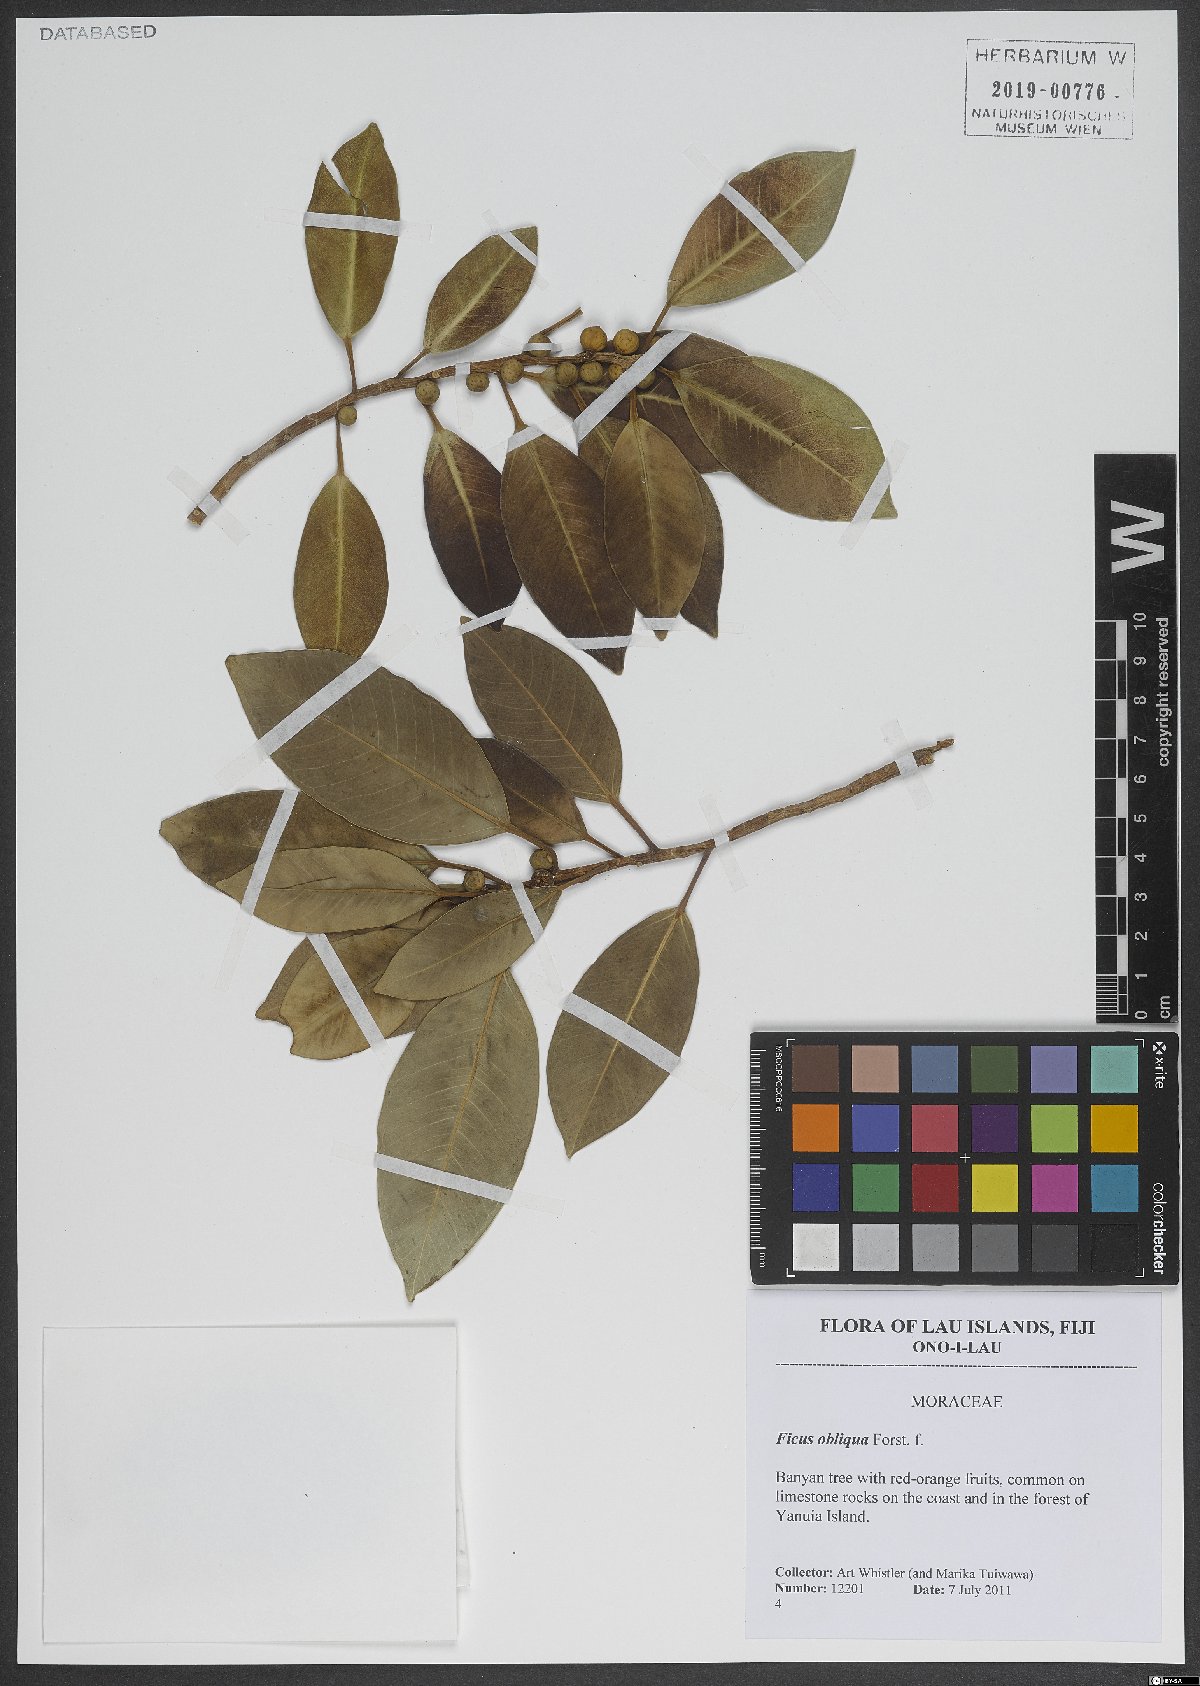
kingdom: Plantae
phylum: Tracheophyta
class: Magnoliopsida
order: Rosales
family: Moraceae
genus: Ficus
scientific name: Ficus obliqua
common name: Small-leaf fig
